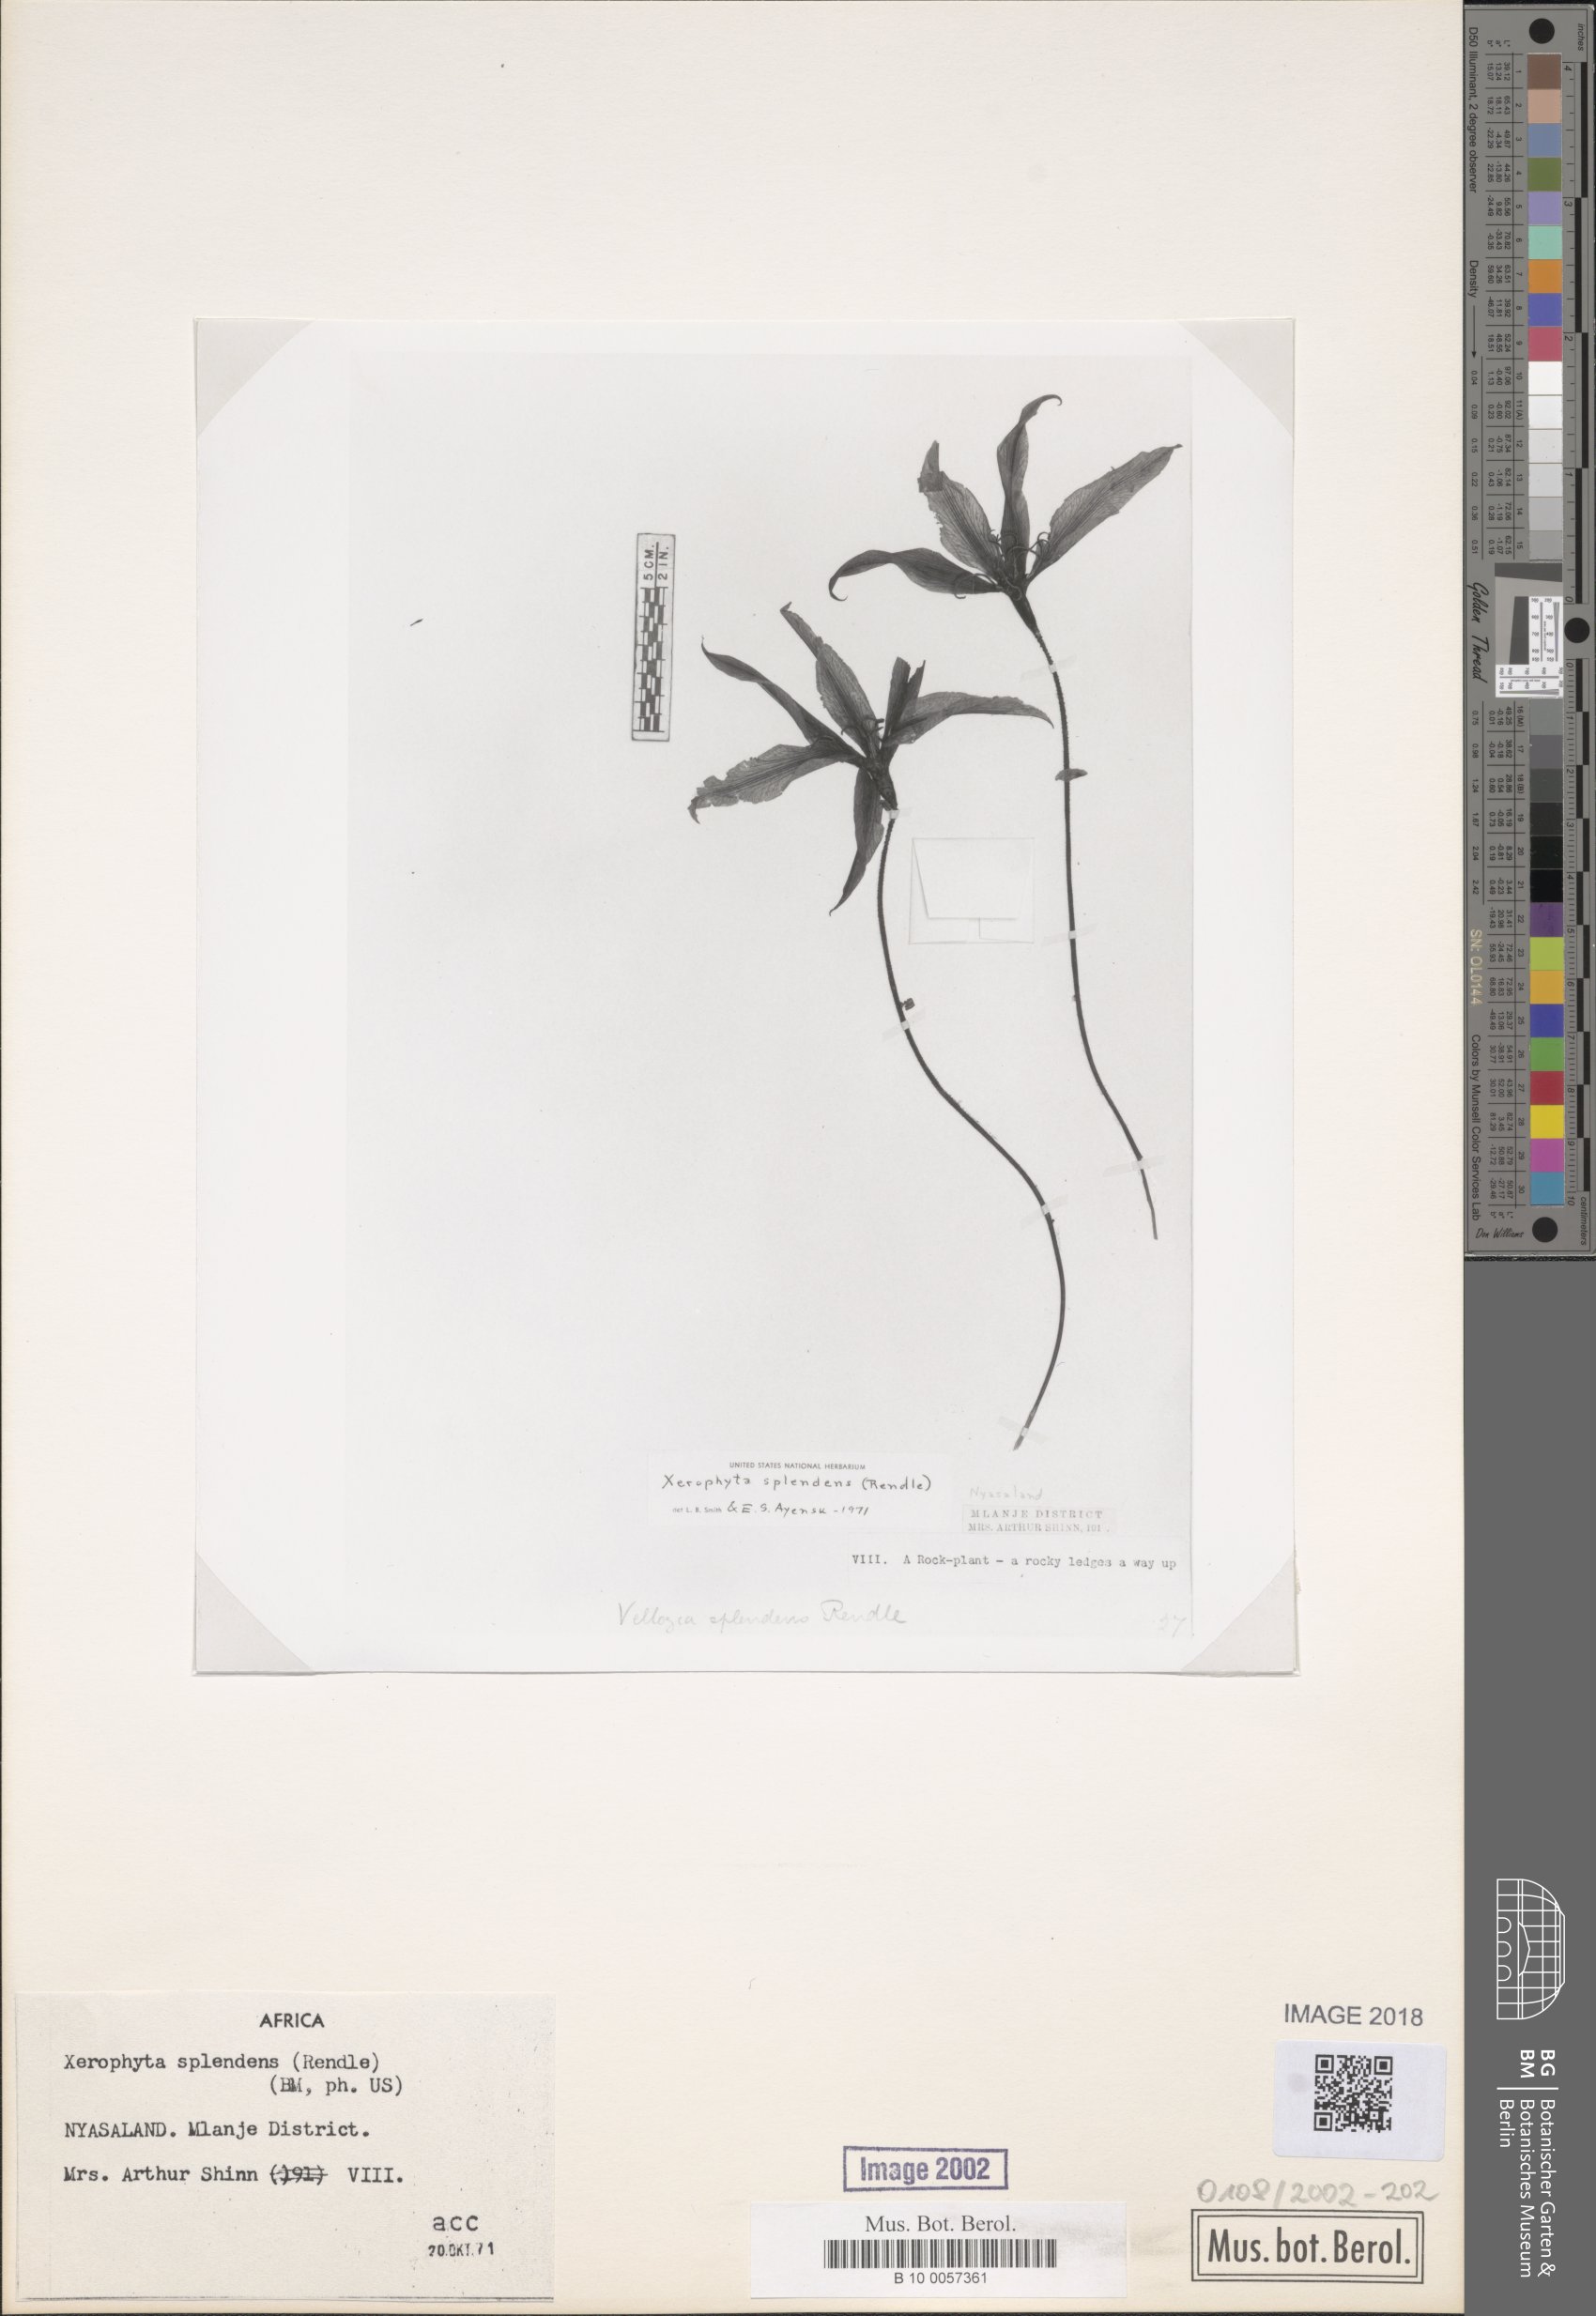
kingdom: Plantae
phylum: Tracheophyta
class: Liliopsida
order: Pandanales
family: Velloziaceae
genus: Xerophyta
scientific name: Xerophyta splendens
